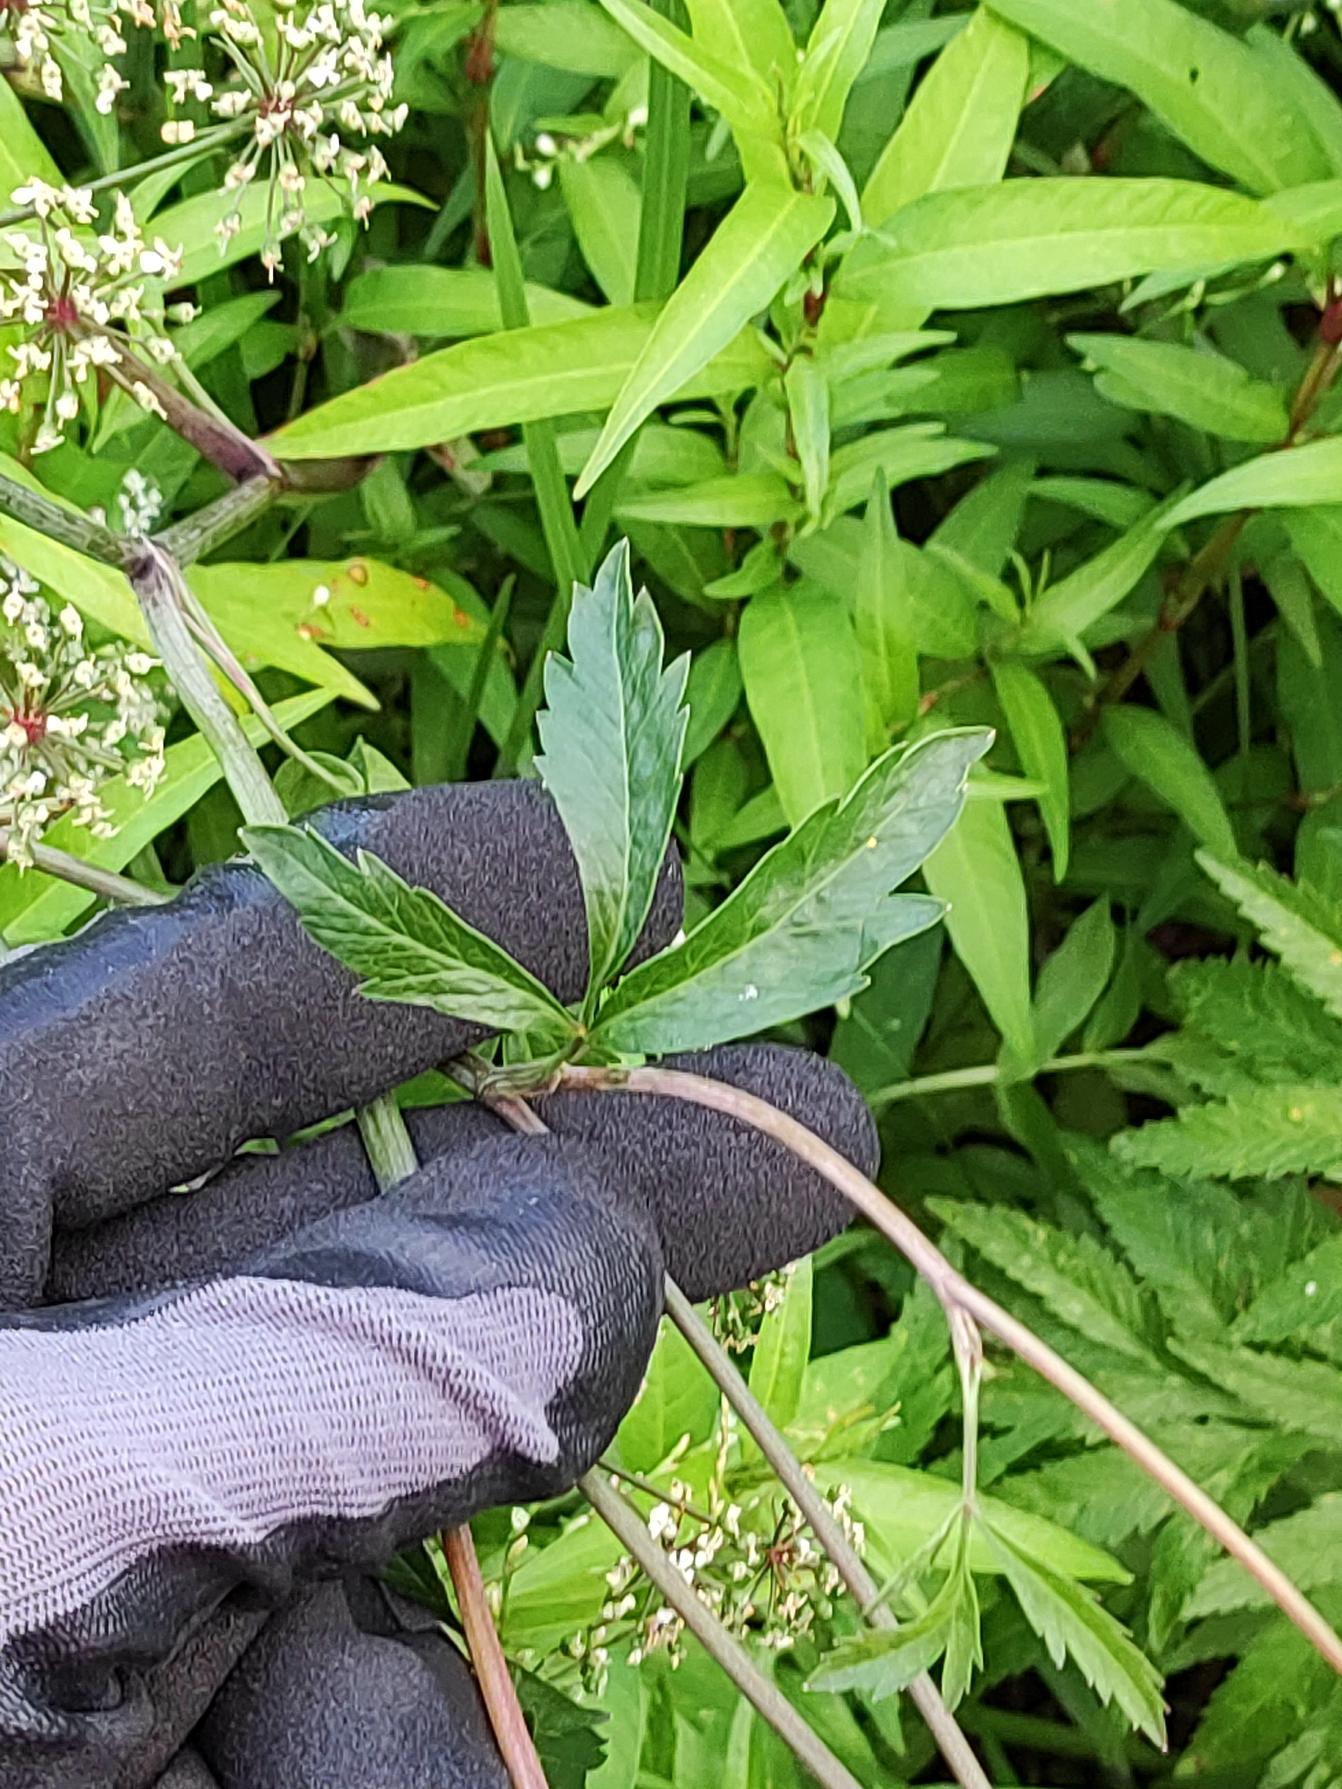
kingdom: Plantae
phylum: Tracheophyta
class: Magnoliopsida
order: Apiales
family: Apiaceae
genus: Cicuta
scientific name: Cicuta virosa
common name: Gifttyde
